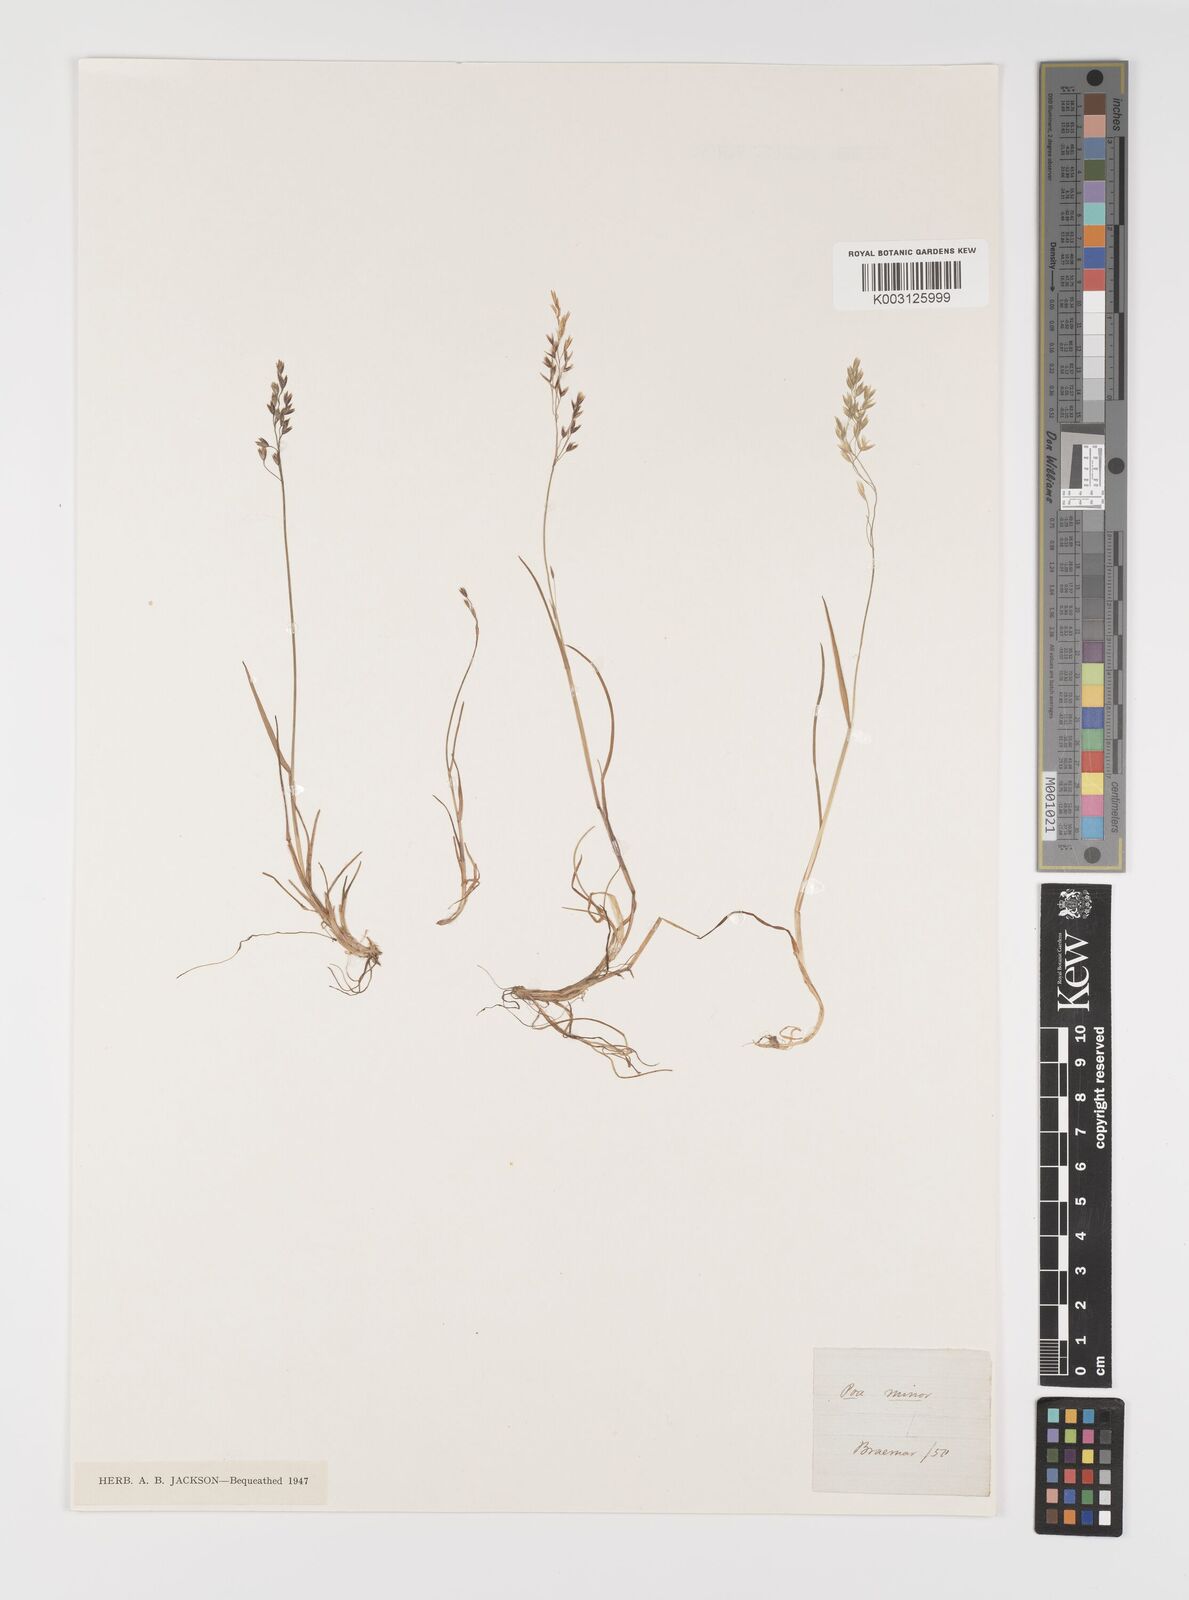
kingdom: Plantae
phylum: Tracheophyta
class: Liliopsida
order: Poales
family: Poaceae
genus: Poa
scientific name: Poa minor
